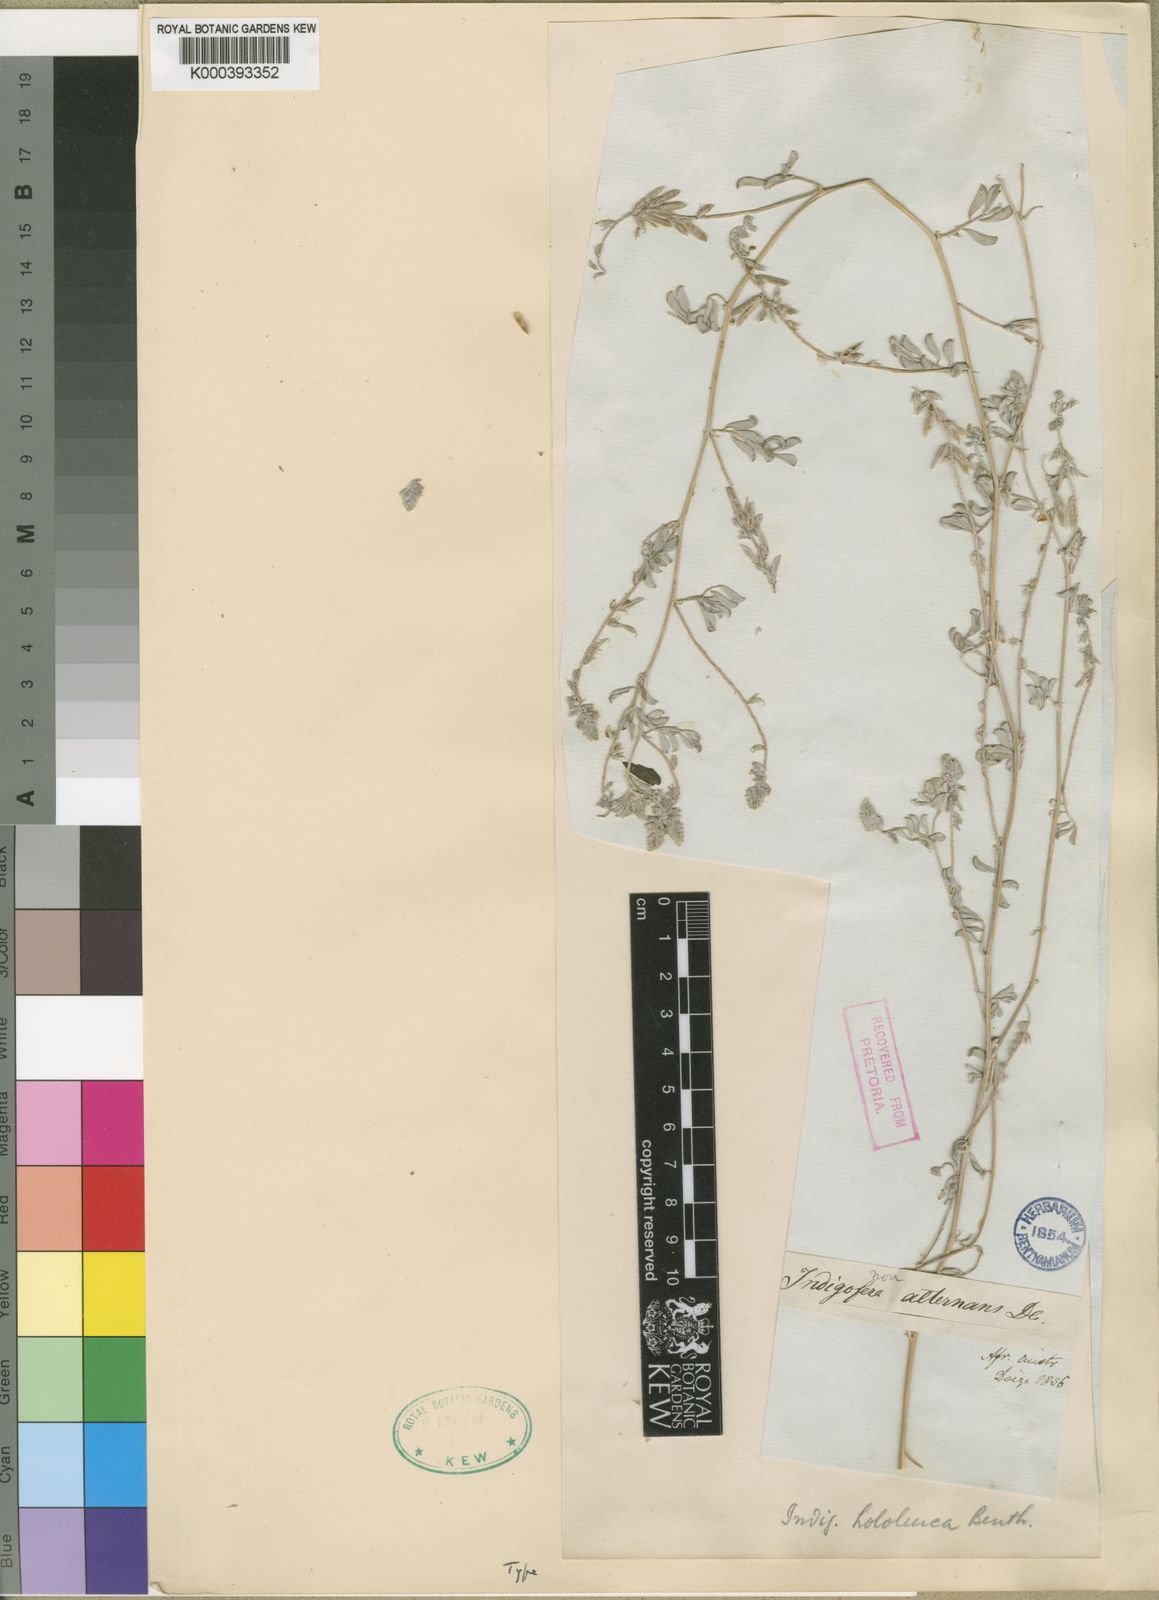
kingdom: Plantae
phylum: Tracheophyta
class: Magnoliopsida
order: Fabales
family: Fabaceae
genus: Indigofera
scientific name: Indigofera hololeuca
